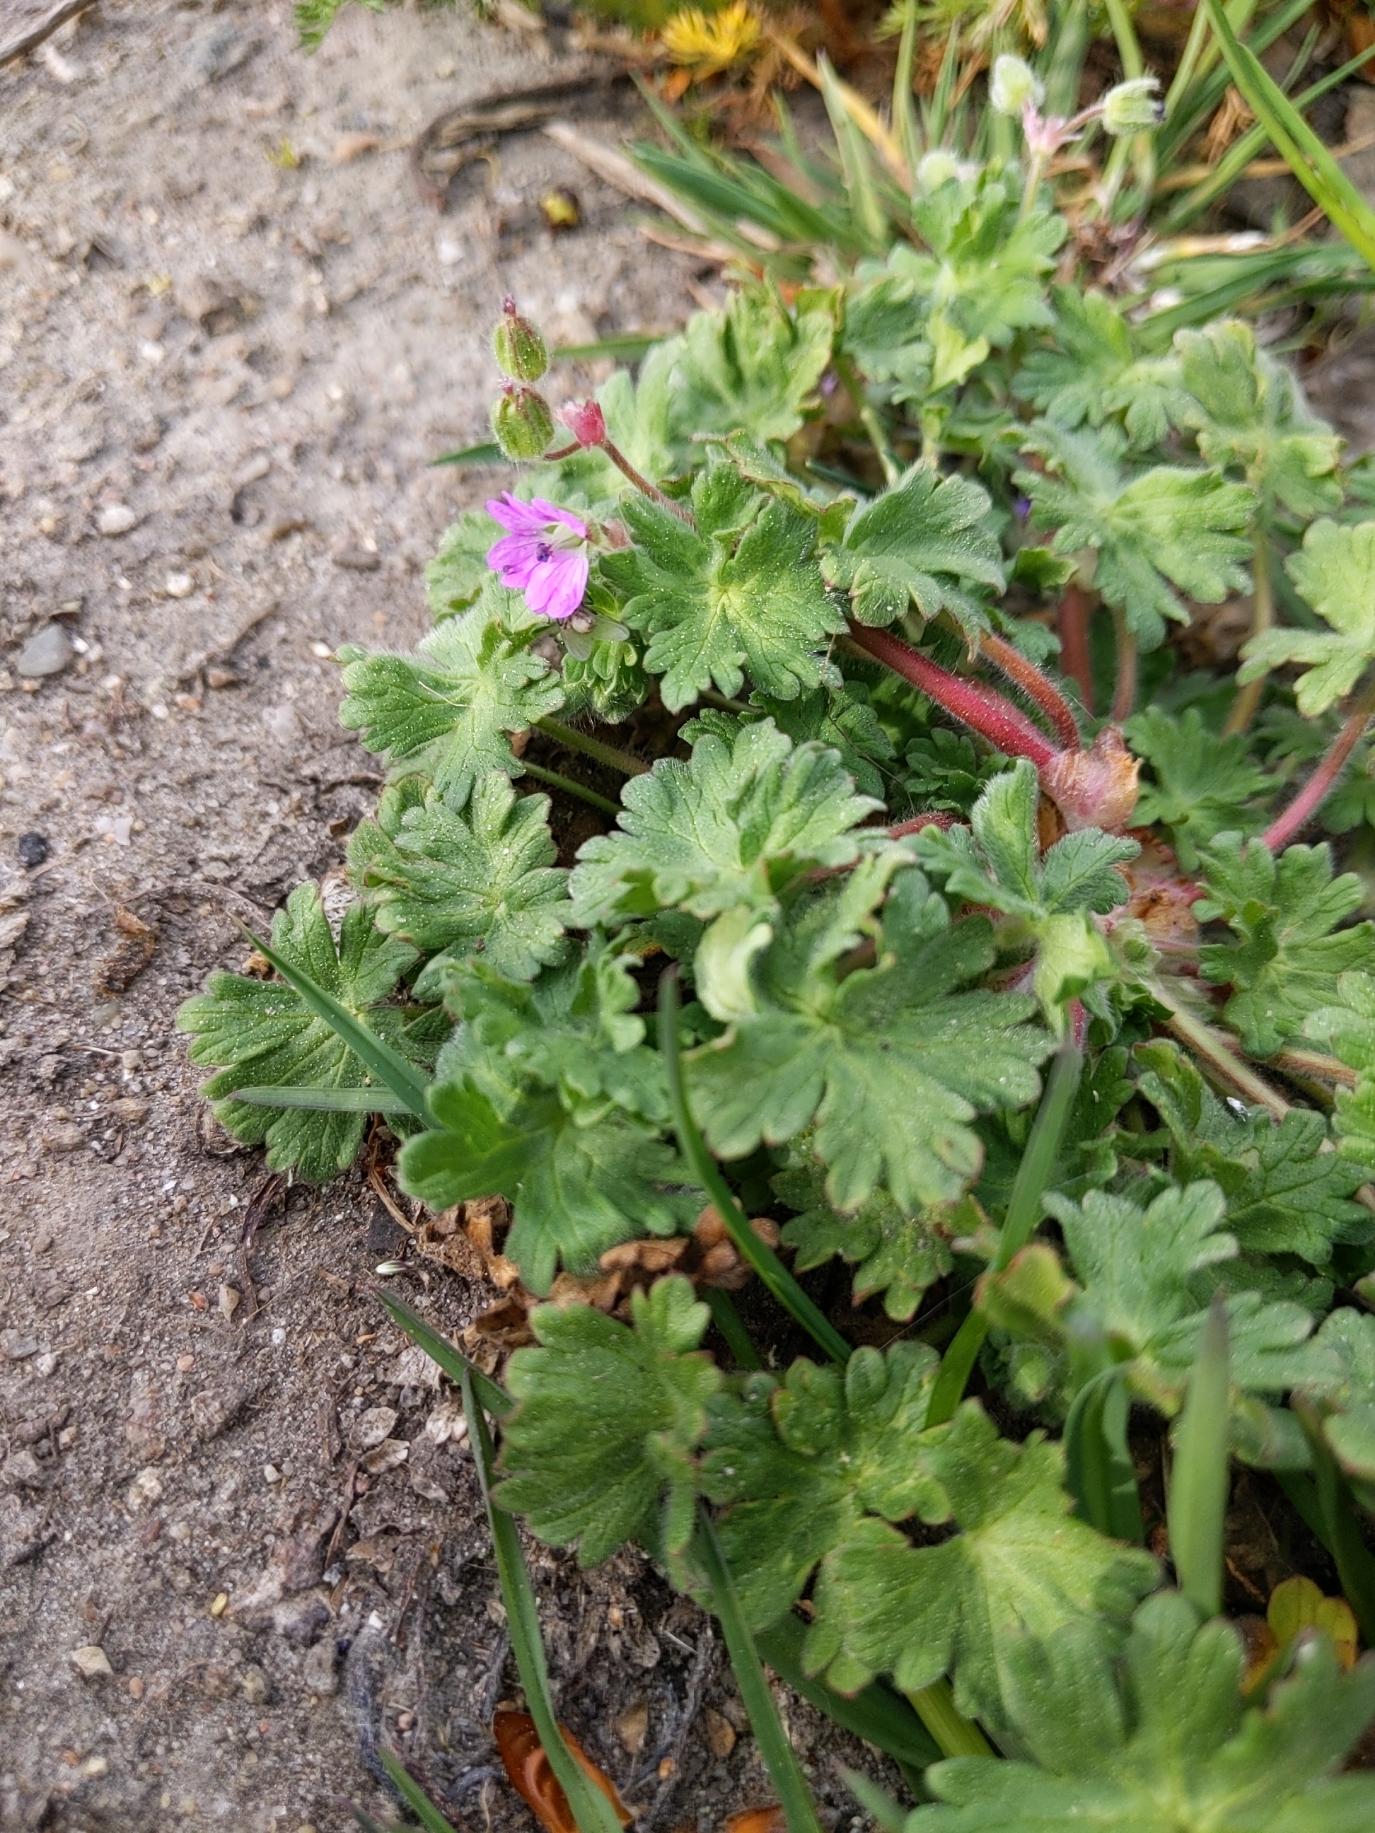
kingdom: Plantae
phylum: Tracheophyta
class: Magnoliopsida
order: Geraniales
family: Geraniaceae
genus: Geranium
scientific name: Geranium molle
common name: Blød storkenæb
